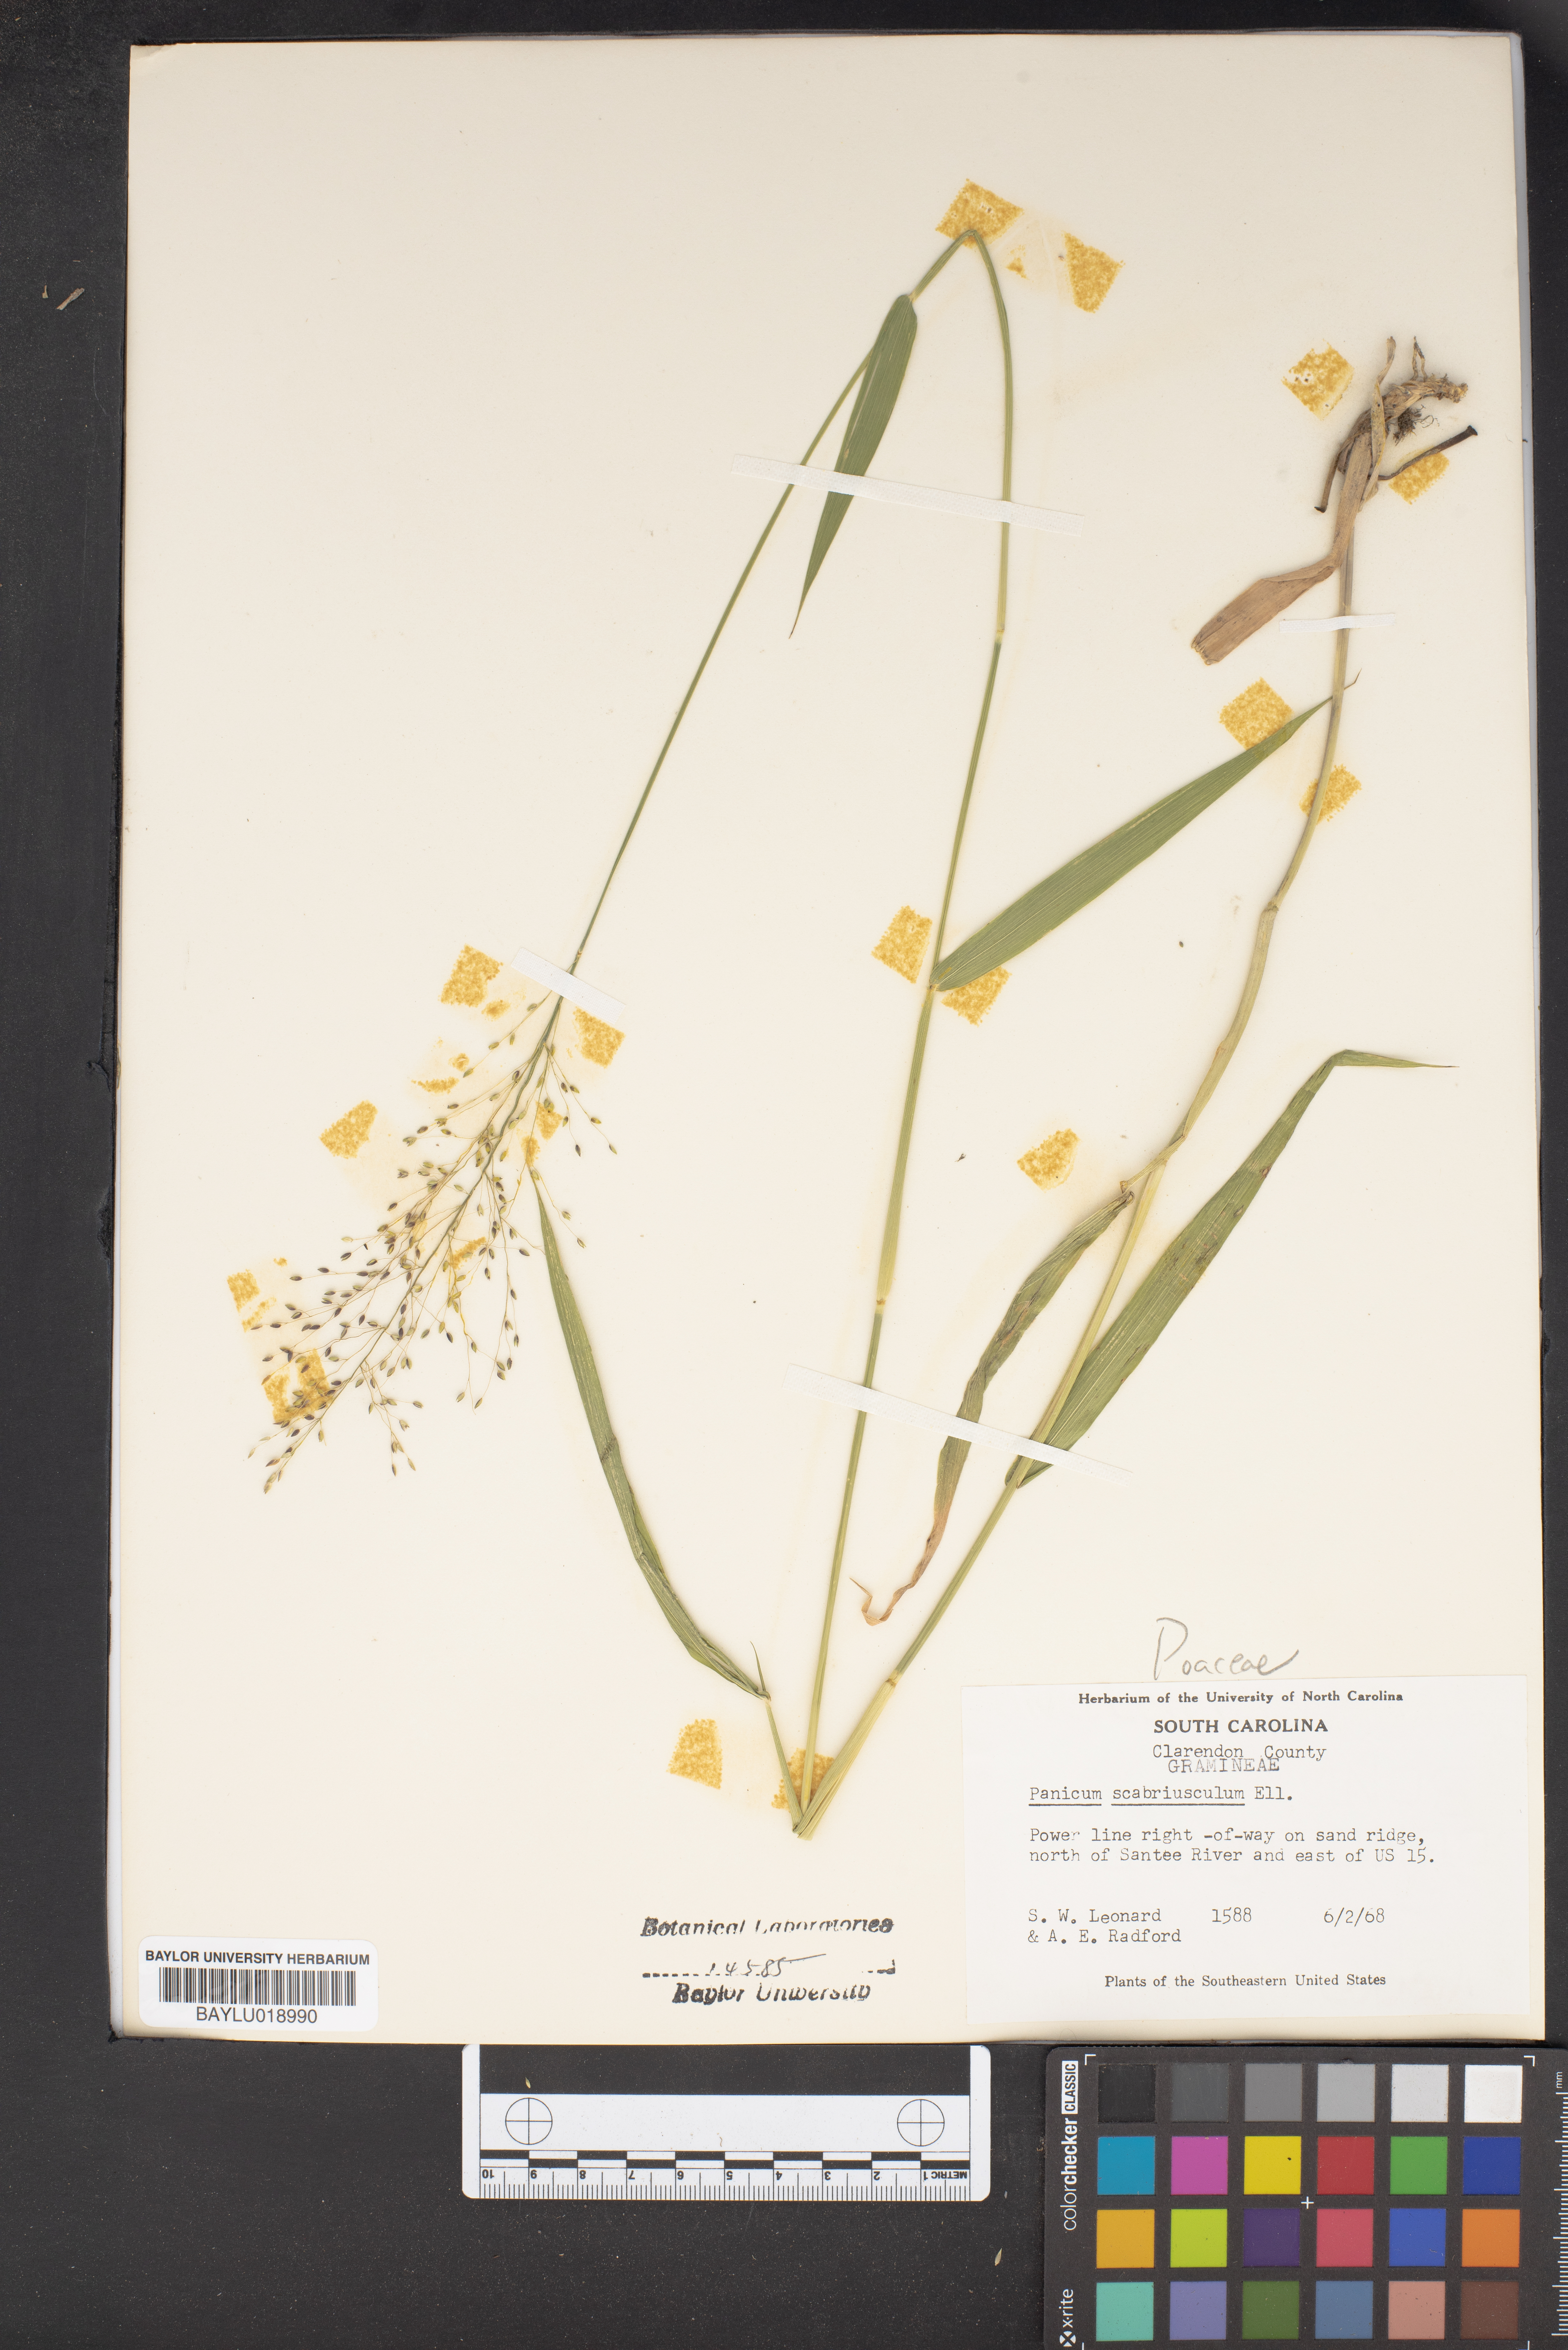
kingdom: Plantae
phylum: Tracheophyta
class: Liliopsida
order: Poales
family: Poaceae
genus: Dichanthelium
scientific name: Dichanthelium scabriusculum
